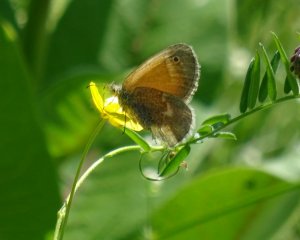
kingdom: Animalia
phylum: Arthropoda
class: Insecta
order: Lepidoptera
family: Nymphalidae
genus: Coenonympha
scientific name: Coenonympha tullia
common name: Large Heath
